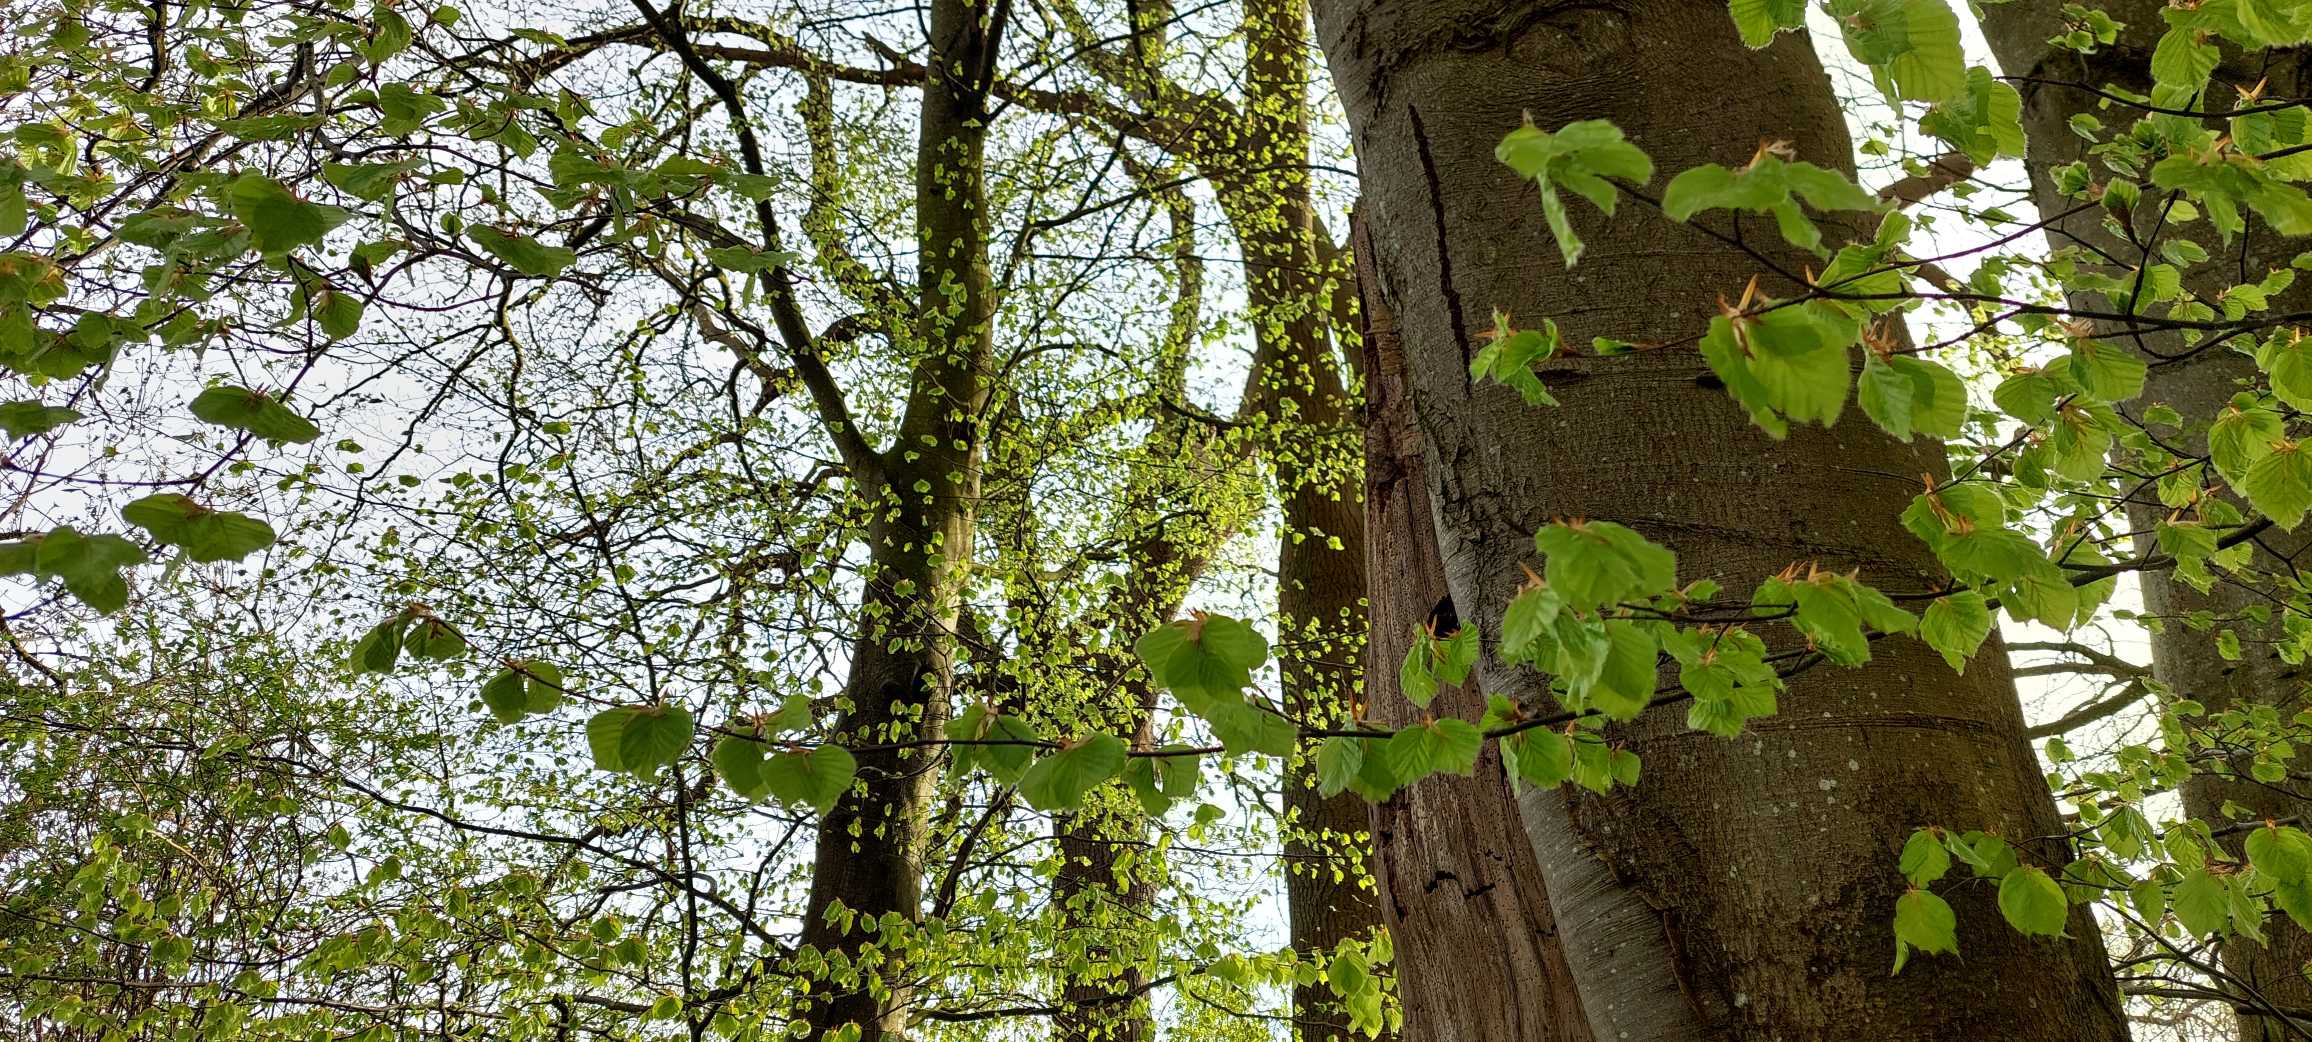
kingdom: Animalia
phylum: Chordata
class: Aves
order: Strigiformes
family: Strigidae
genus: Strix
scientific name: Strix aluco
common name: Natugle
